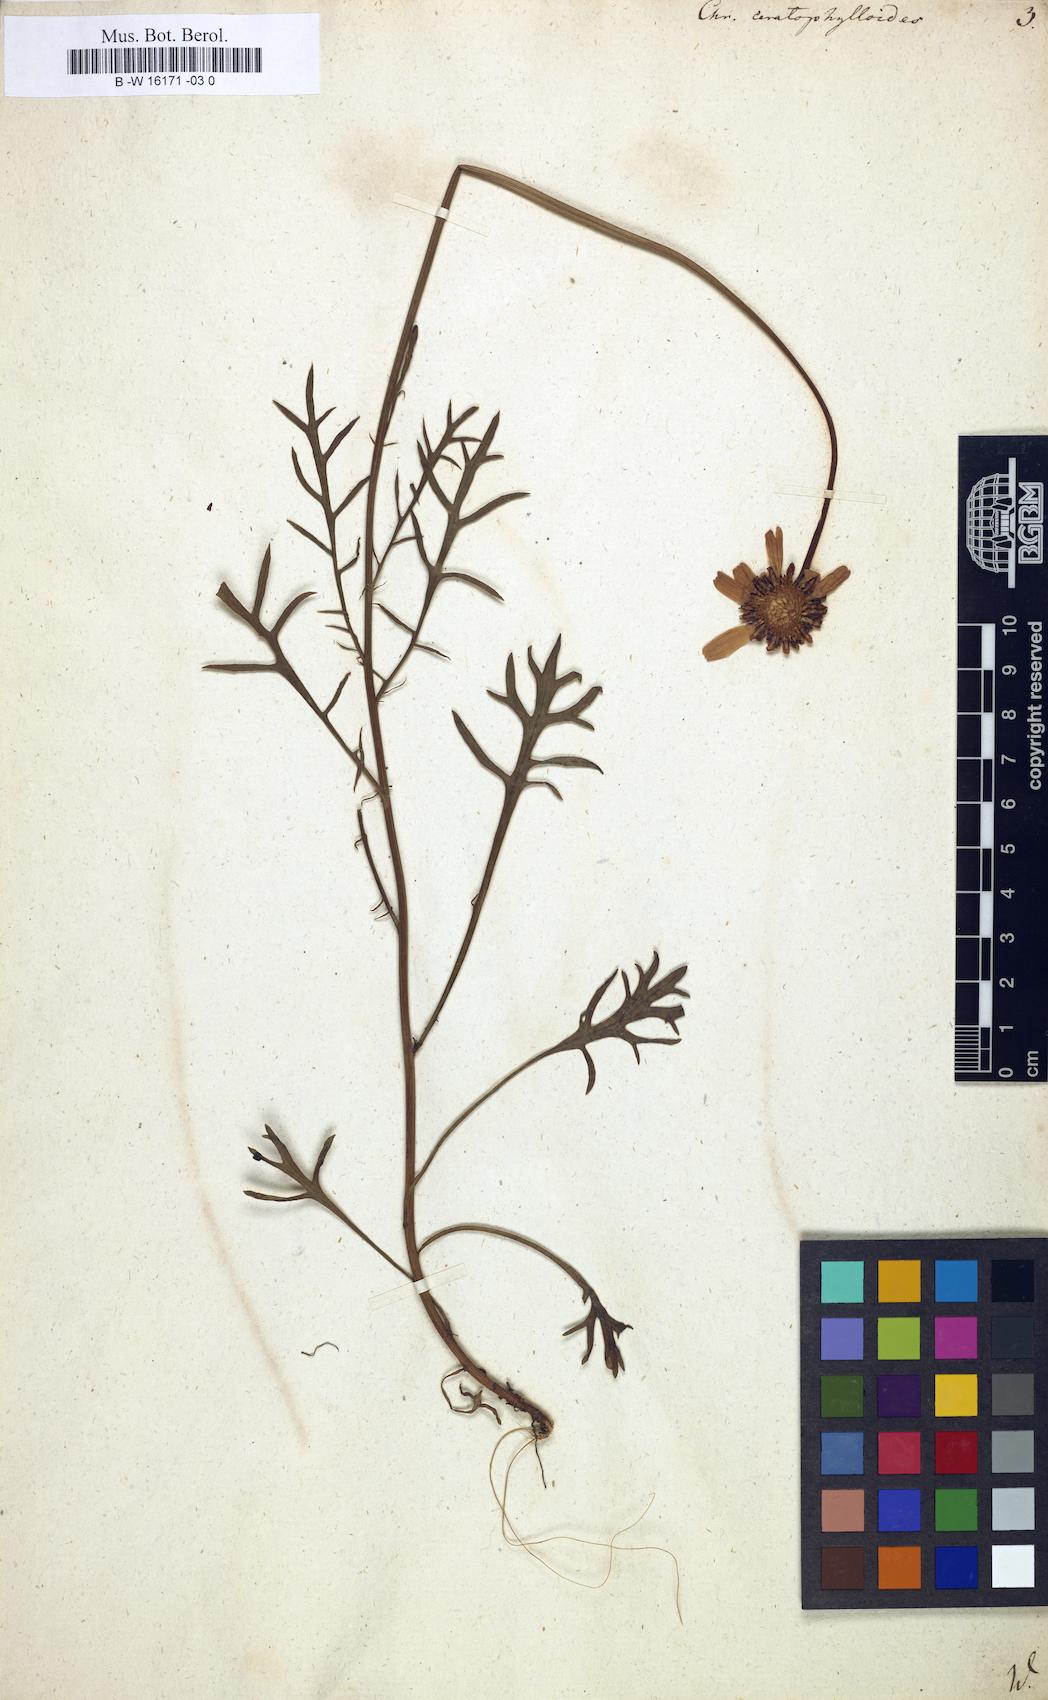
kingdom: Plantae
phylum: Tracheophyta
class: Magnoliopsida
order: Asterales
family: Asteraceae
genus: Leucanthemum
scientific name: Leucanthemum coronopifolium
